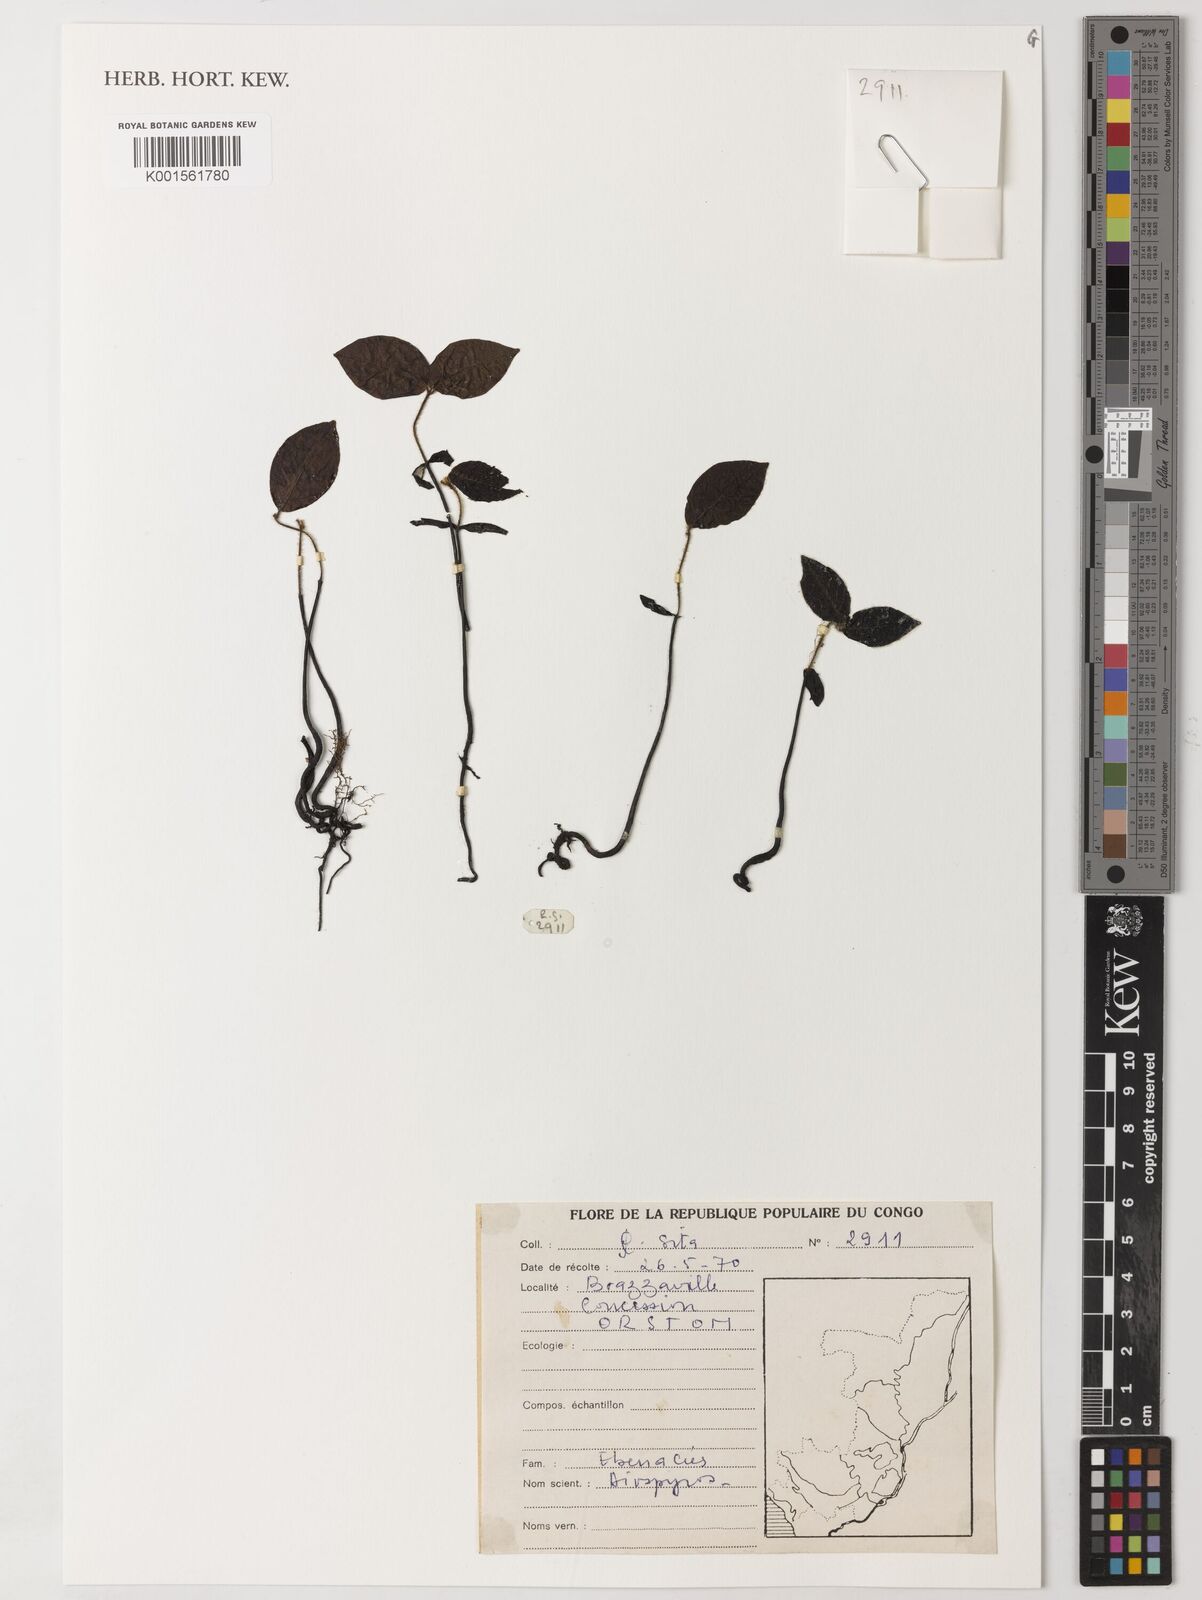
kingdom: Plantae
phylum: Tracheophyta
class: Magnoliopsida
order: Ericales
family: Ebenaceae
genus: Diospyros
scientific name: Diospyros
